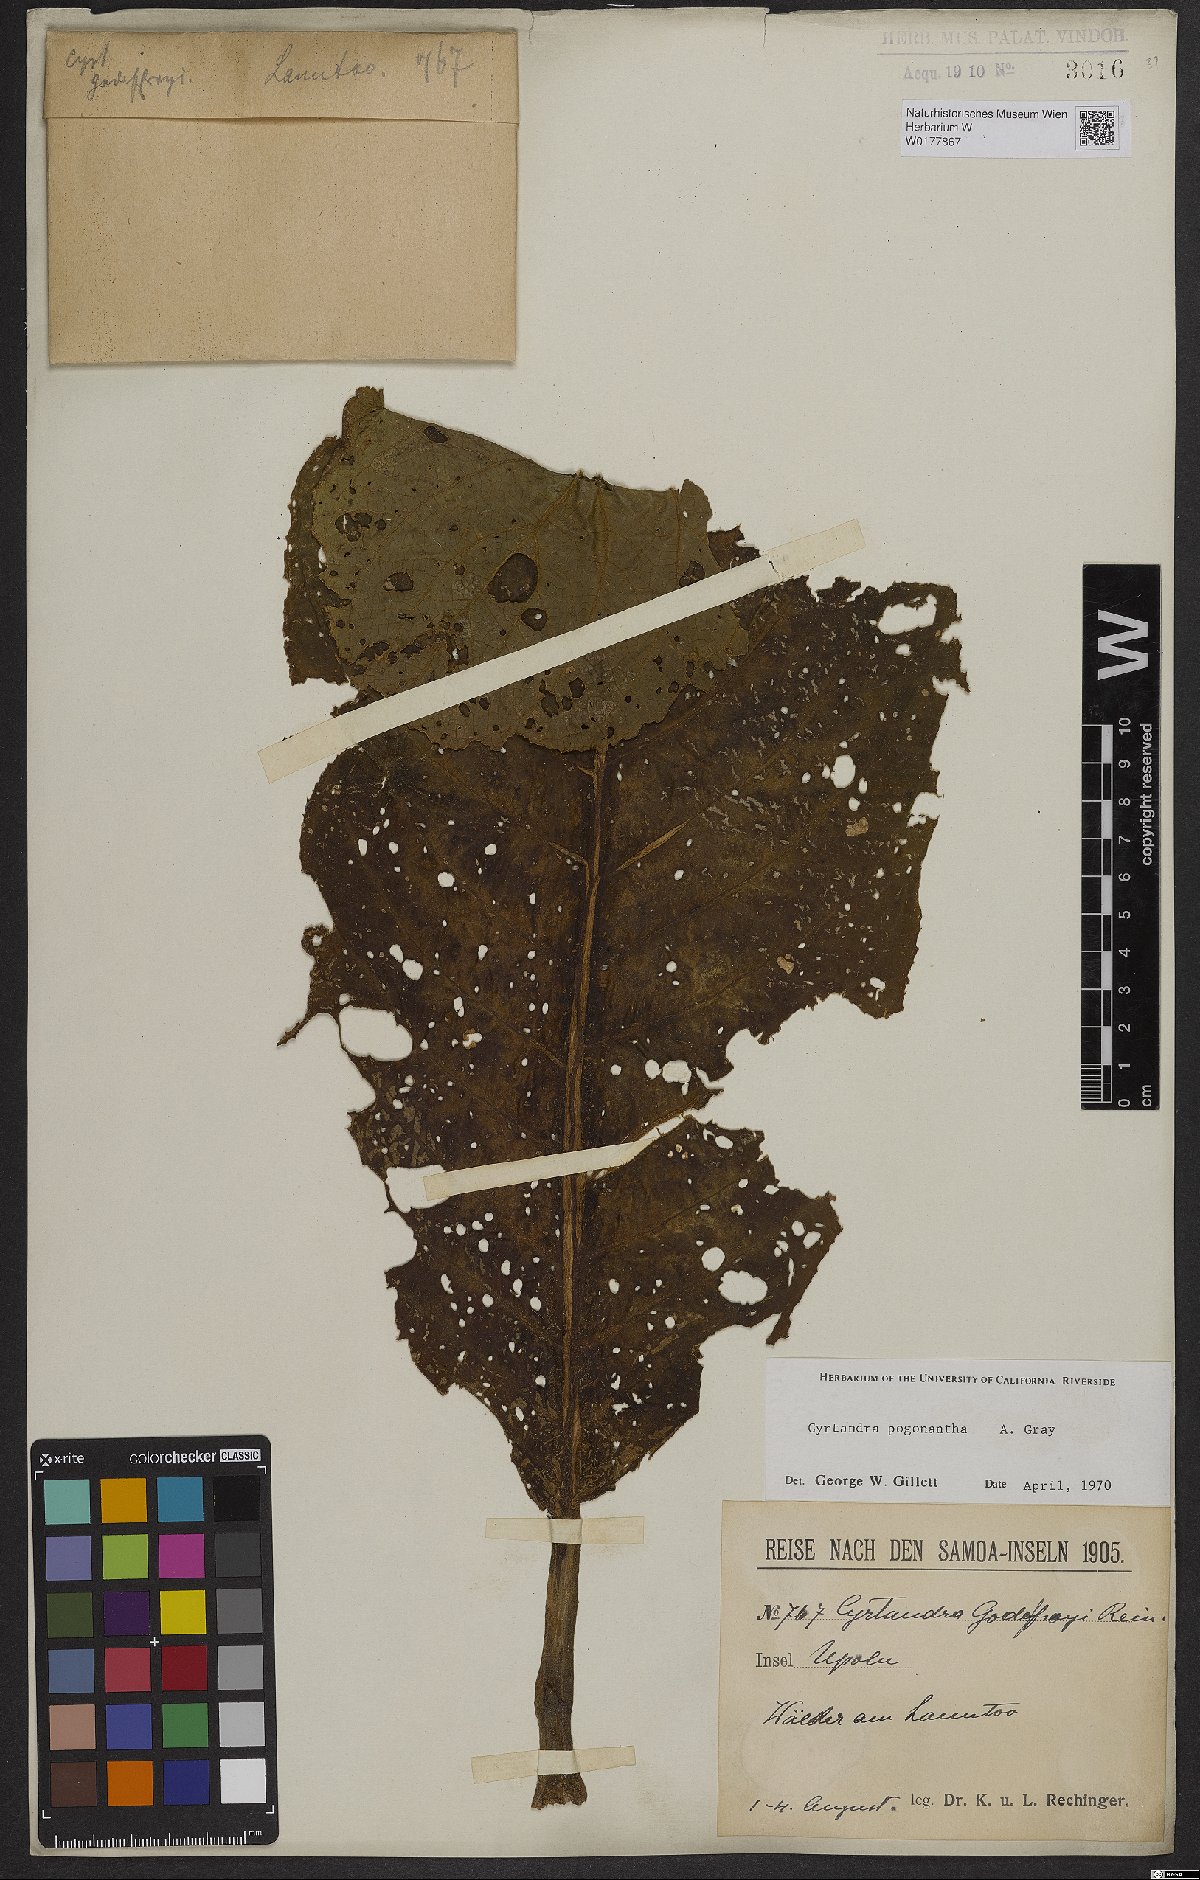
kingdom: Plantae
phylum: Tracheophyta
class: Magnoliopsida
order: Lamiales
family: Gesneriaceae
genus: Cyrtandra
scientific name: Cyrtandra pogonantha
